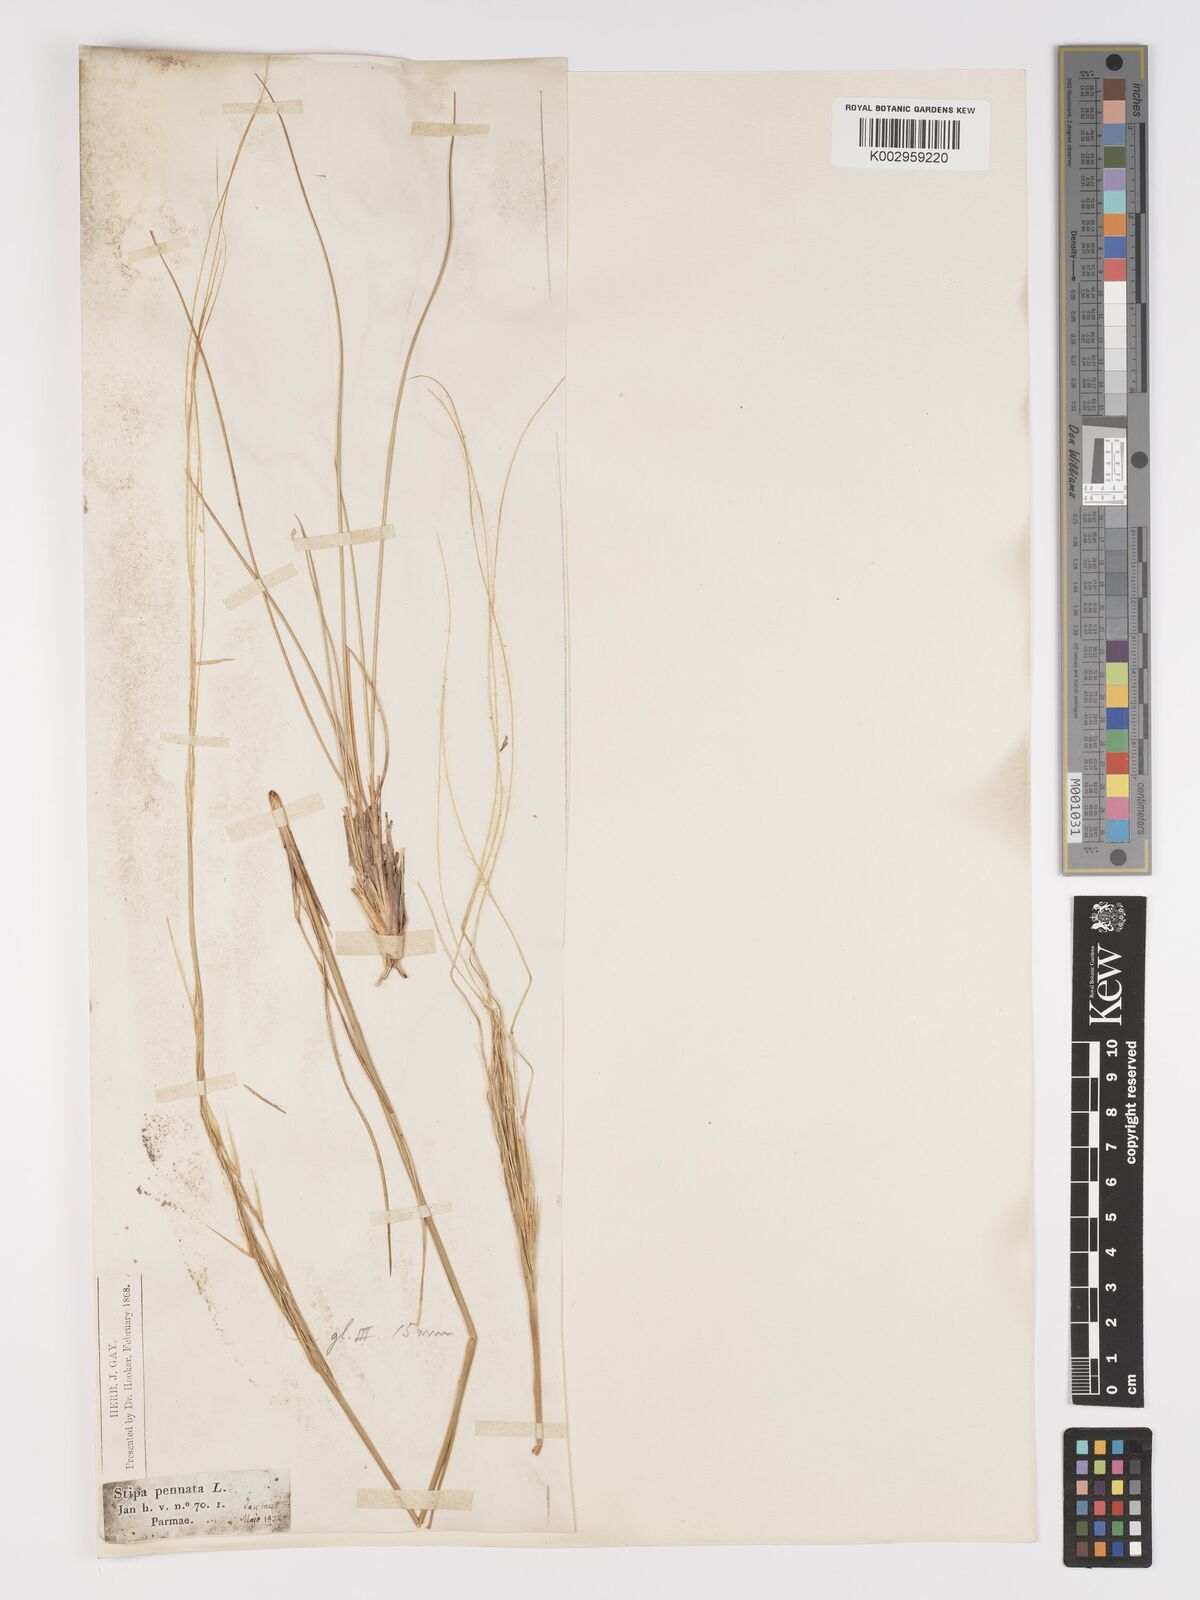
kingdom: Plantae
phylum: Tracheophyta
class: Liliopsida
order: Poales
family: Poaceae
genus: Stipa
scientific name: Stipa pennata
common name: European feather grass
